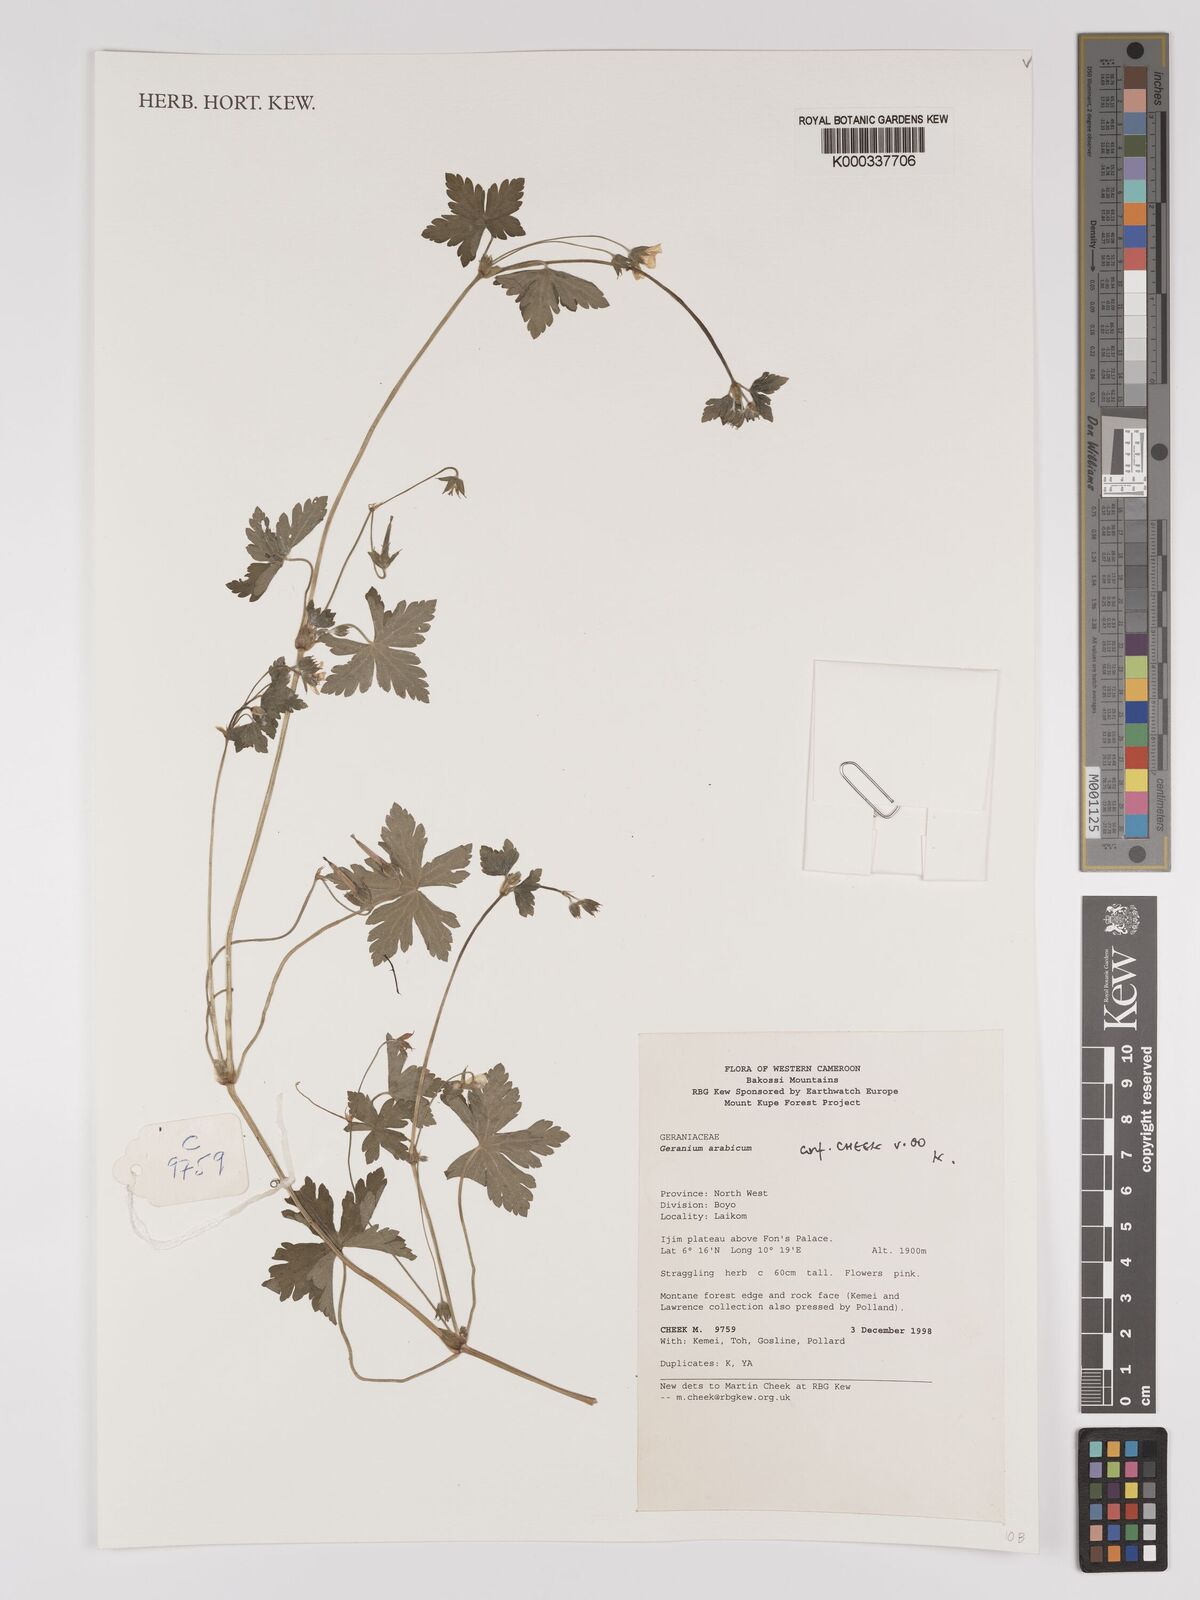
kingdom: Plantae
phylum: Tracheophyta
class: Magnoliopsida
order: Geraniales
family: Geraniaceae
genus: Geranium
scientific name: Geranium arabicum
